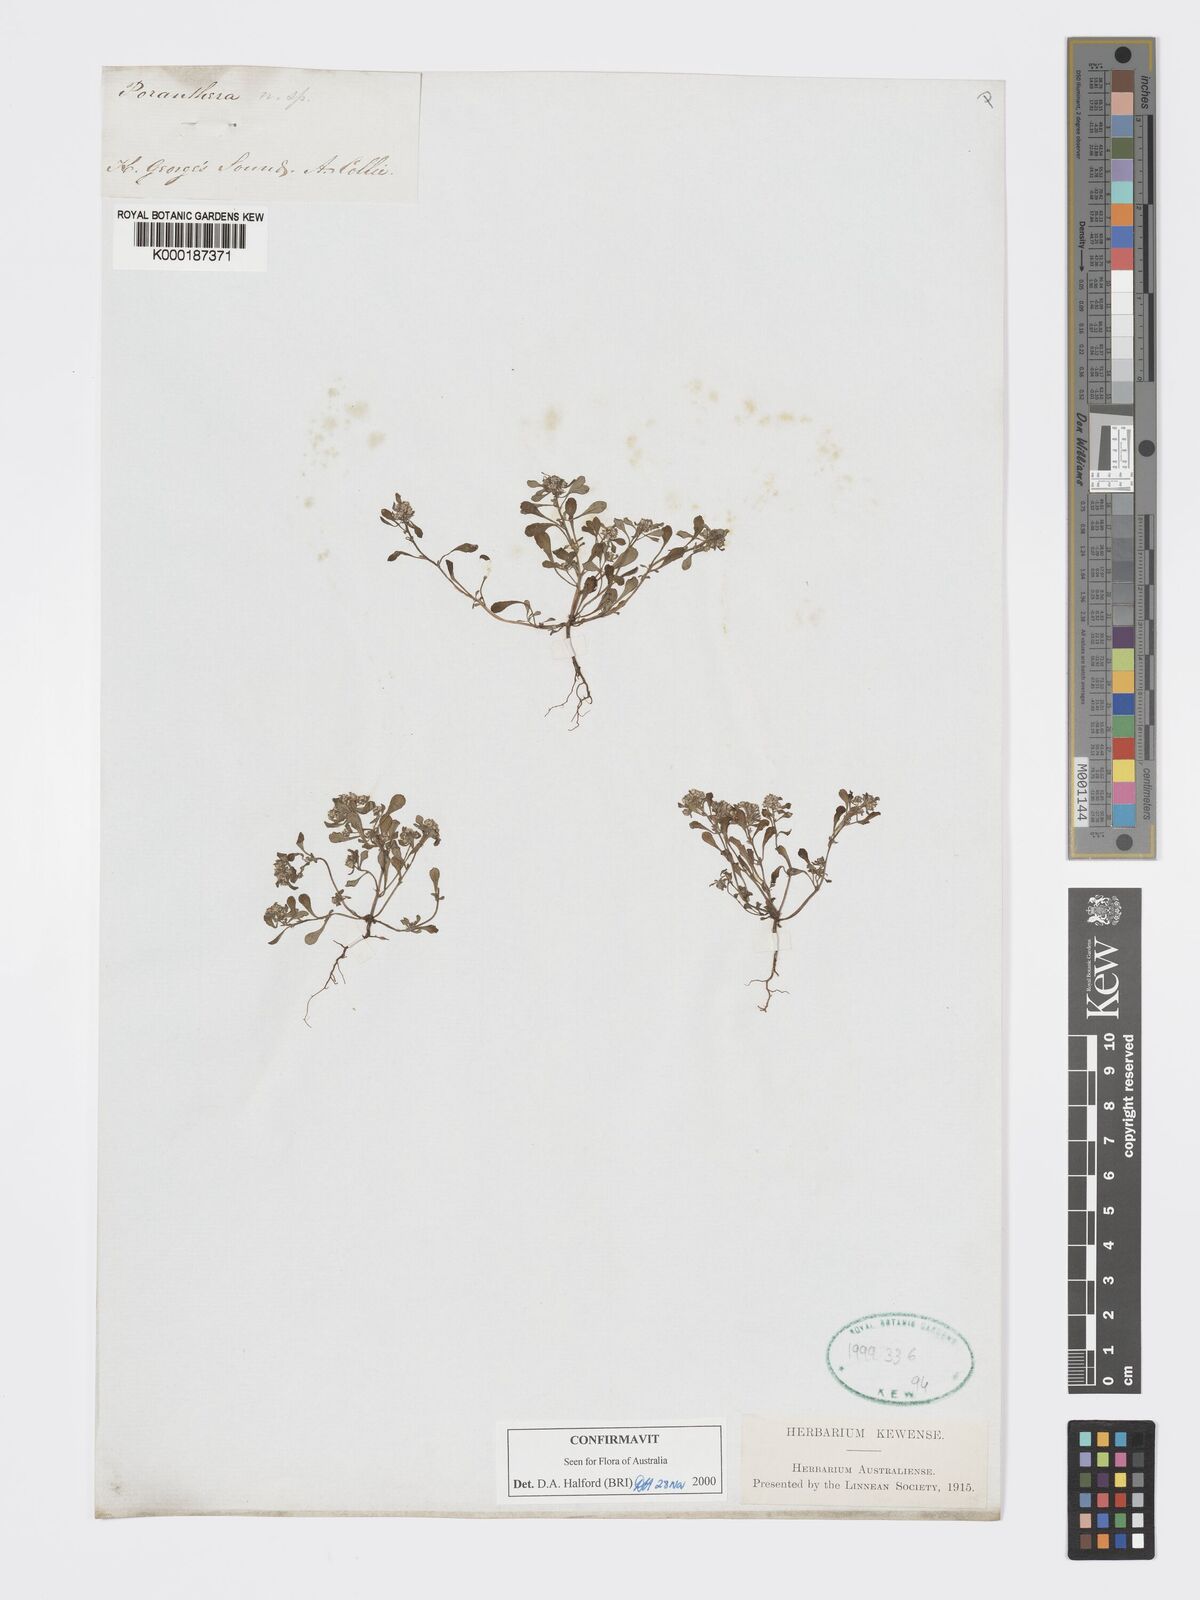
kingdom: Plantae
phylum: Tracheophyta
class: Magnoliopsida
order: Malpighiales
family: Phyllanthaceae
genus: Poranthera
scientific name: Poranthera
